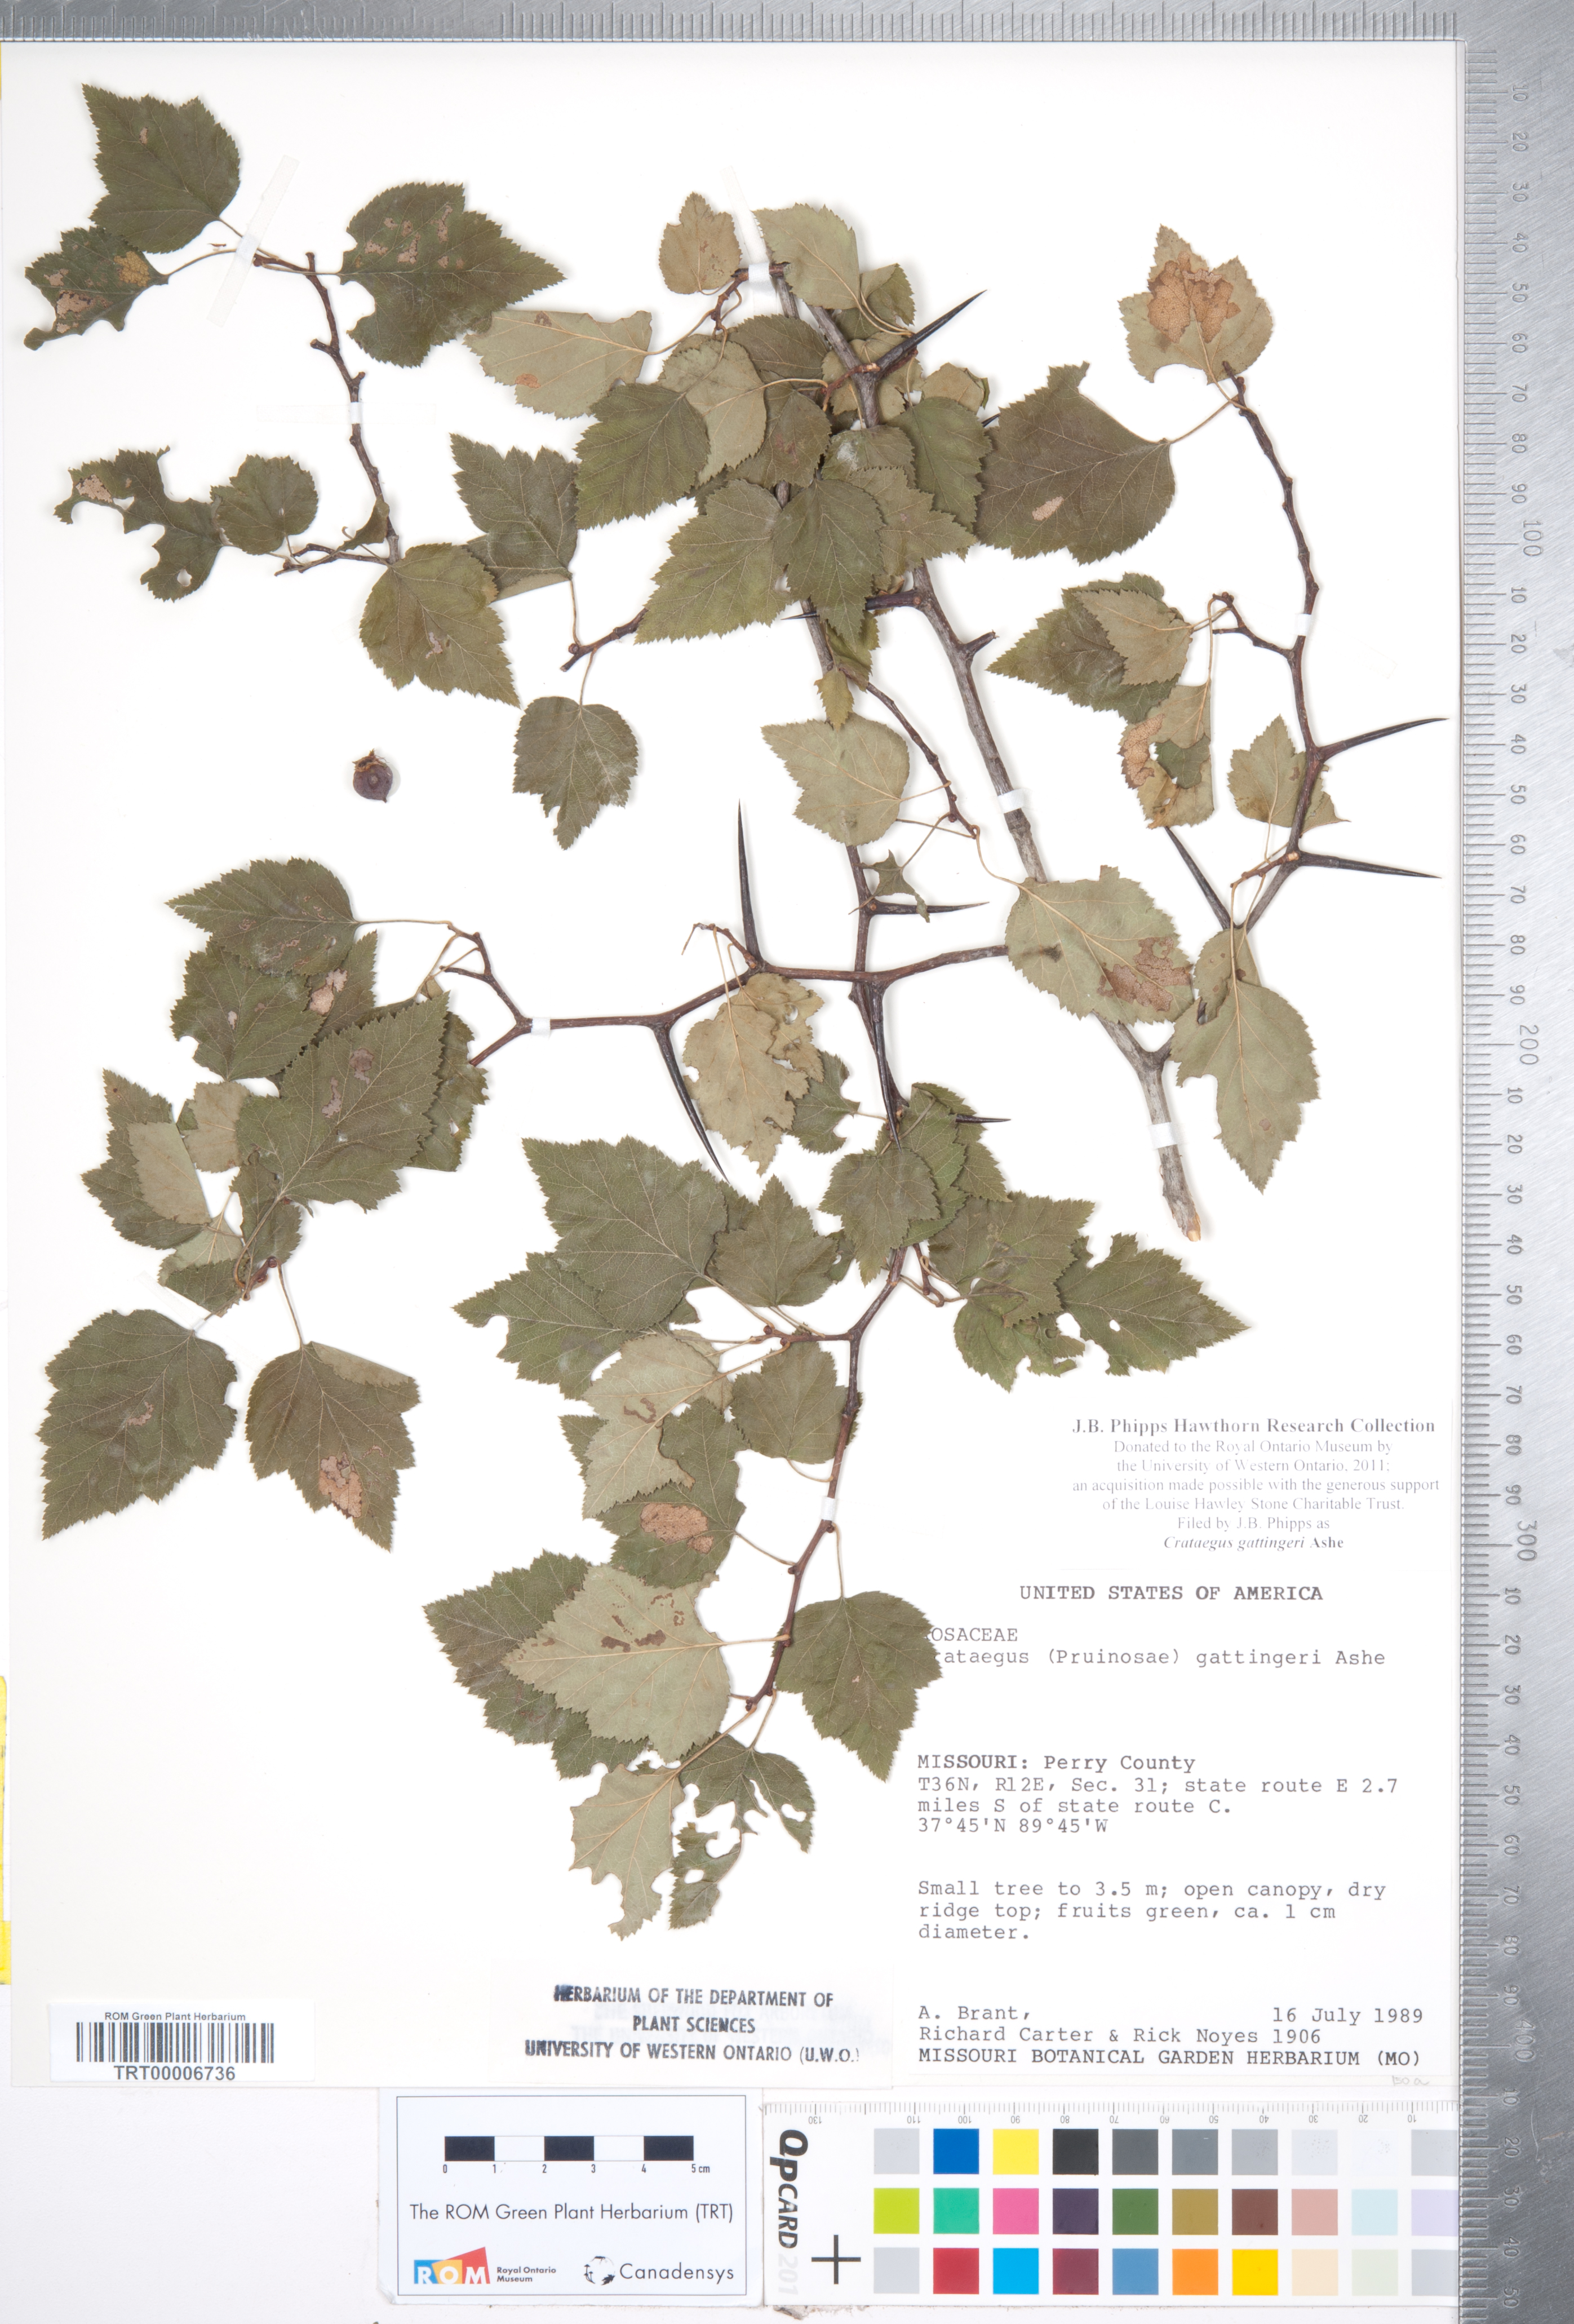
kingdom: Plantae
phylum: Tracheophyta
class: Magnoliopsida
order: Rosales
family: Rosaceae
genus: Crataegus
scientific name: Crataegus gattingeri
